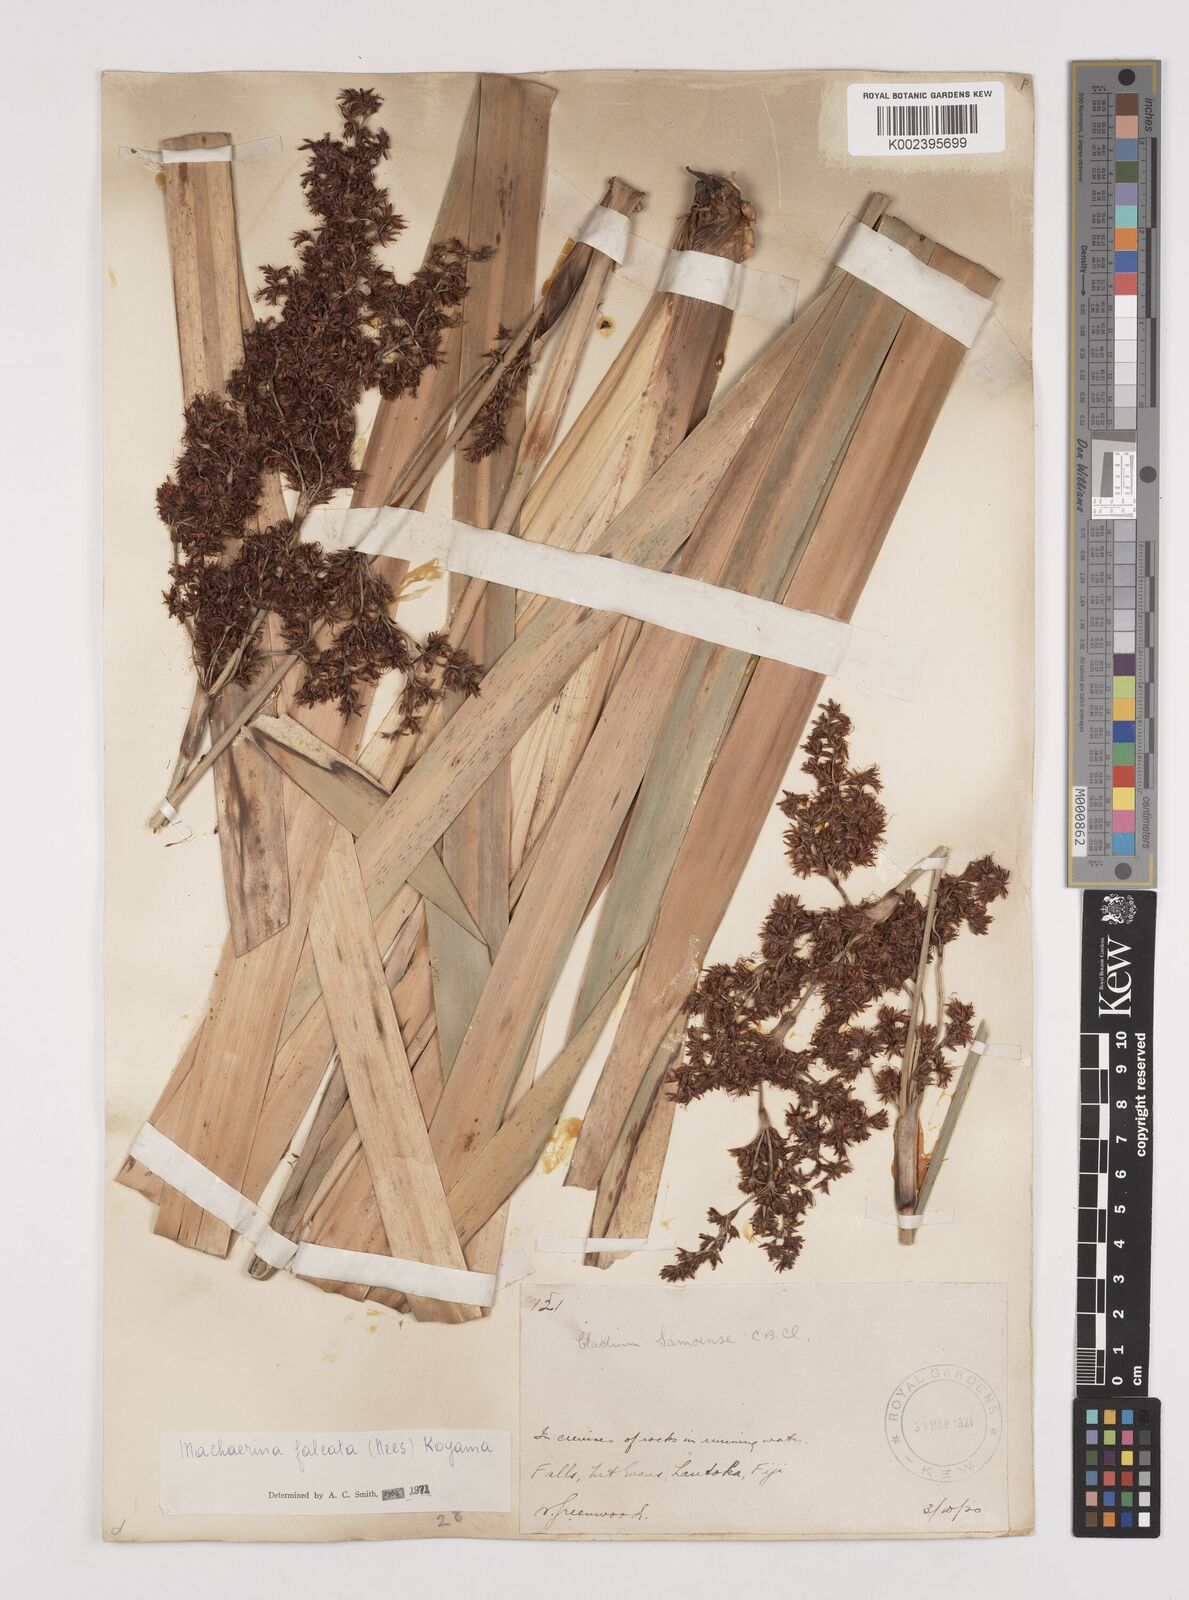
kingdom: Plantae
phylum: Tracheophyta
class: Liliopsida
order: Poales
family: Cyperaceae
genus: Machaerina
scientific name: Machaerina falcata
